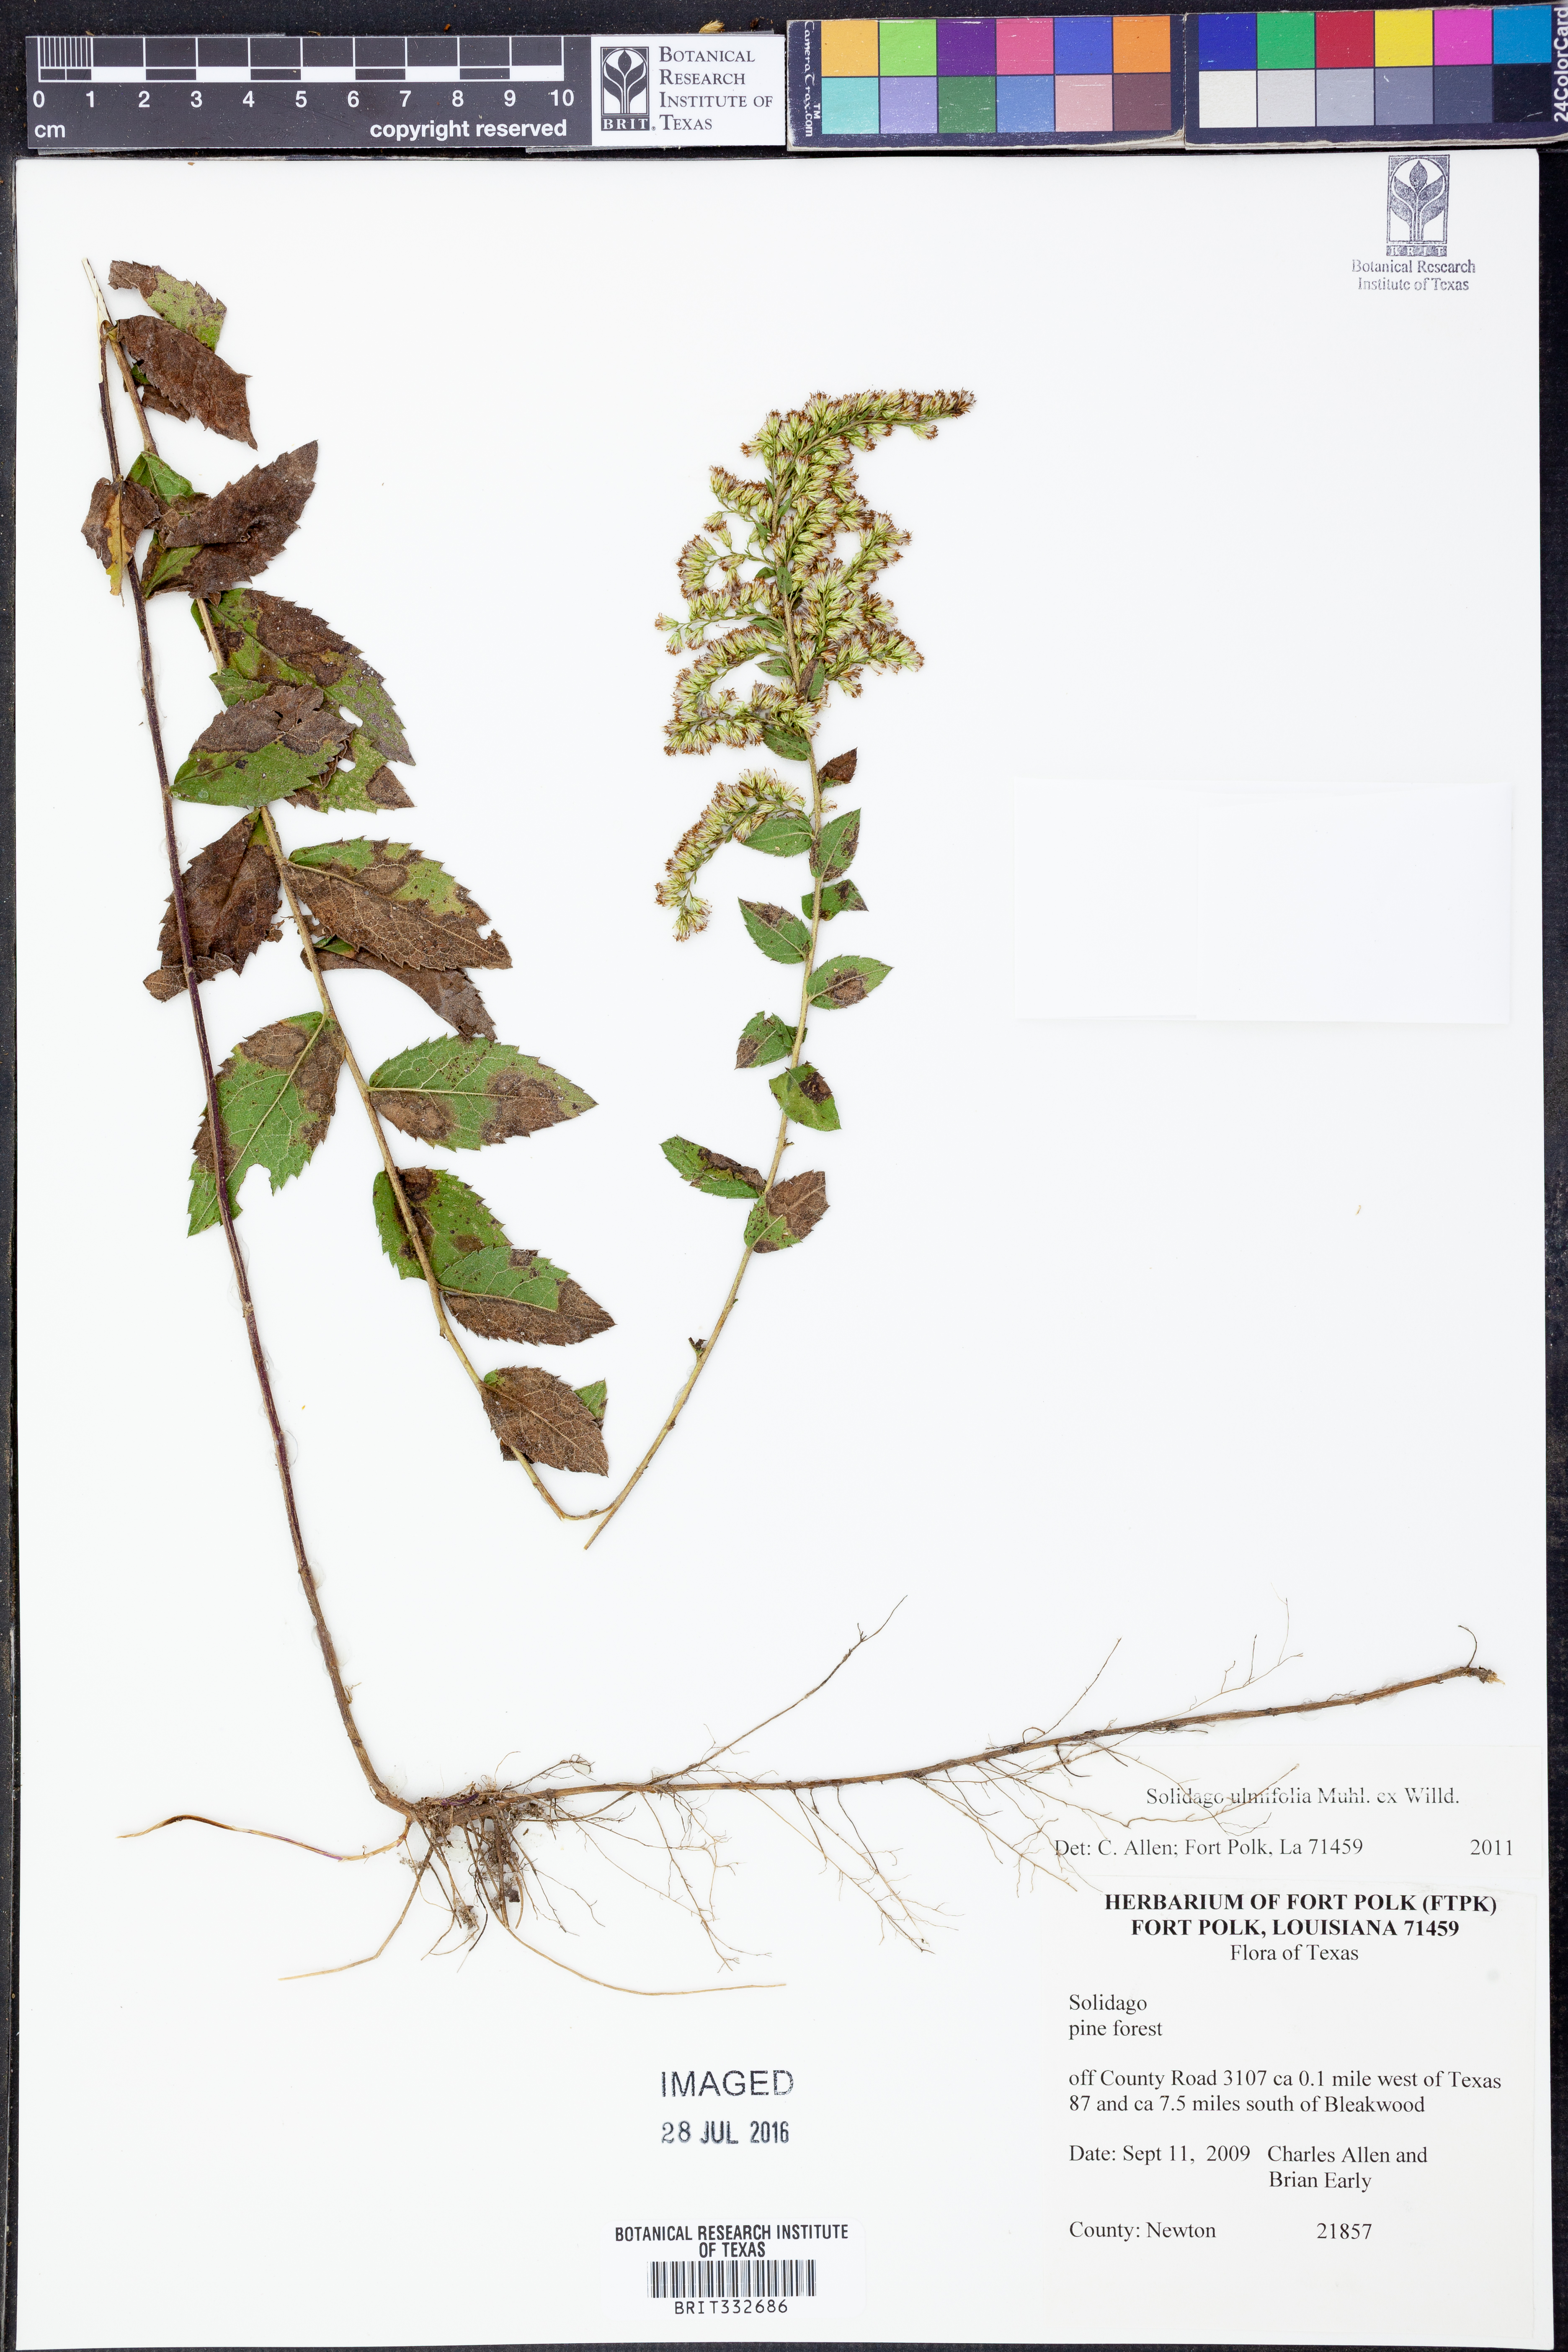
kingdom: Plantae
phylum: Tracheophyta
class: Magnoliopsida
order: Asterales
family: Asteraceae
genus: Solidago
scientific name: Solidago ulmifolia
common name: Elm-leaf goldenrod
